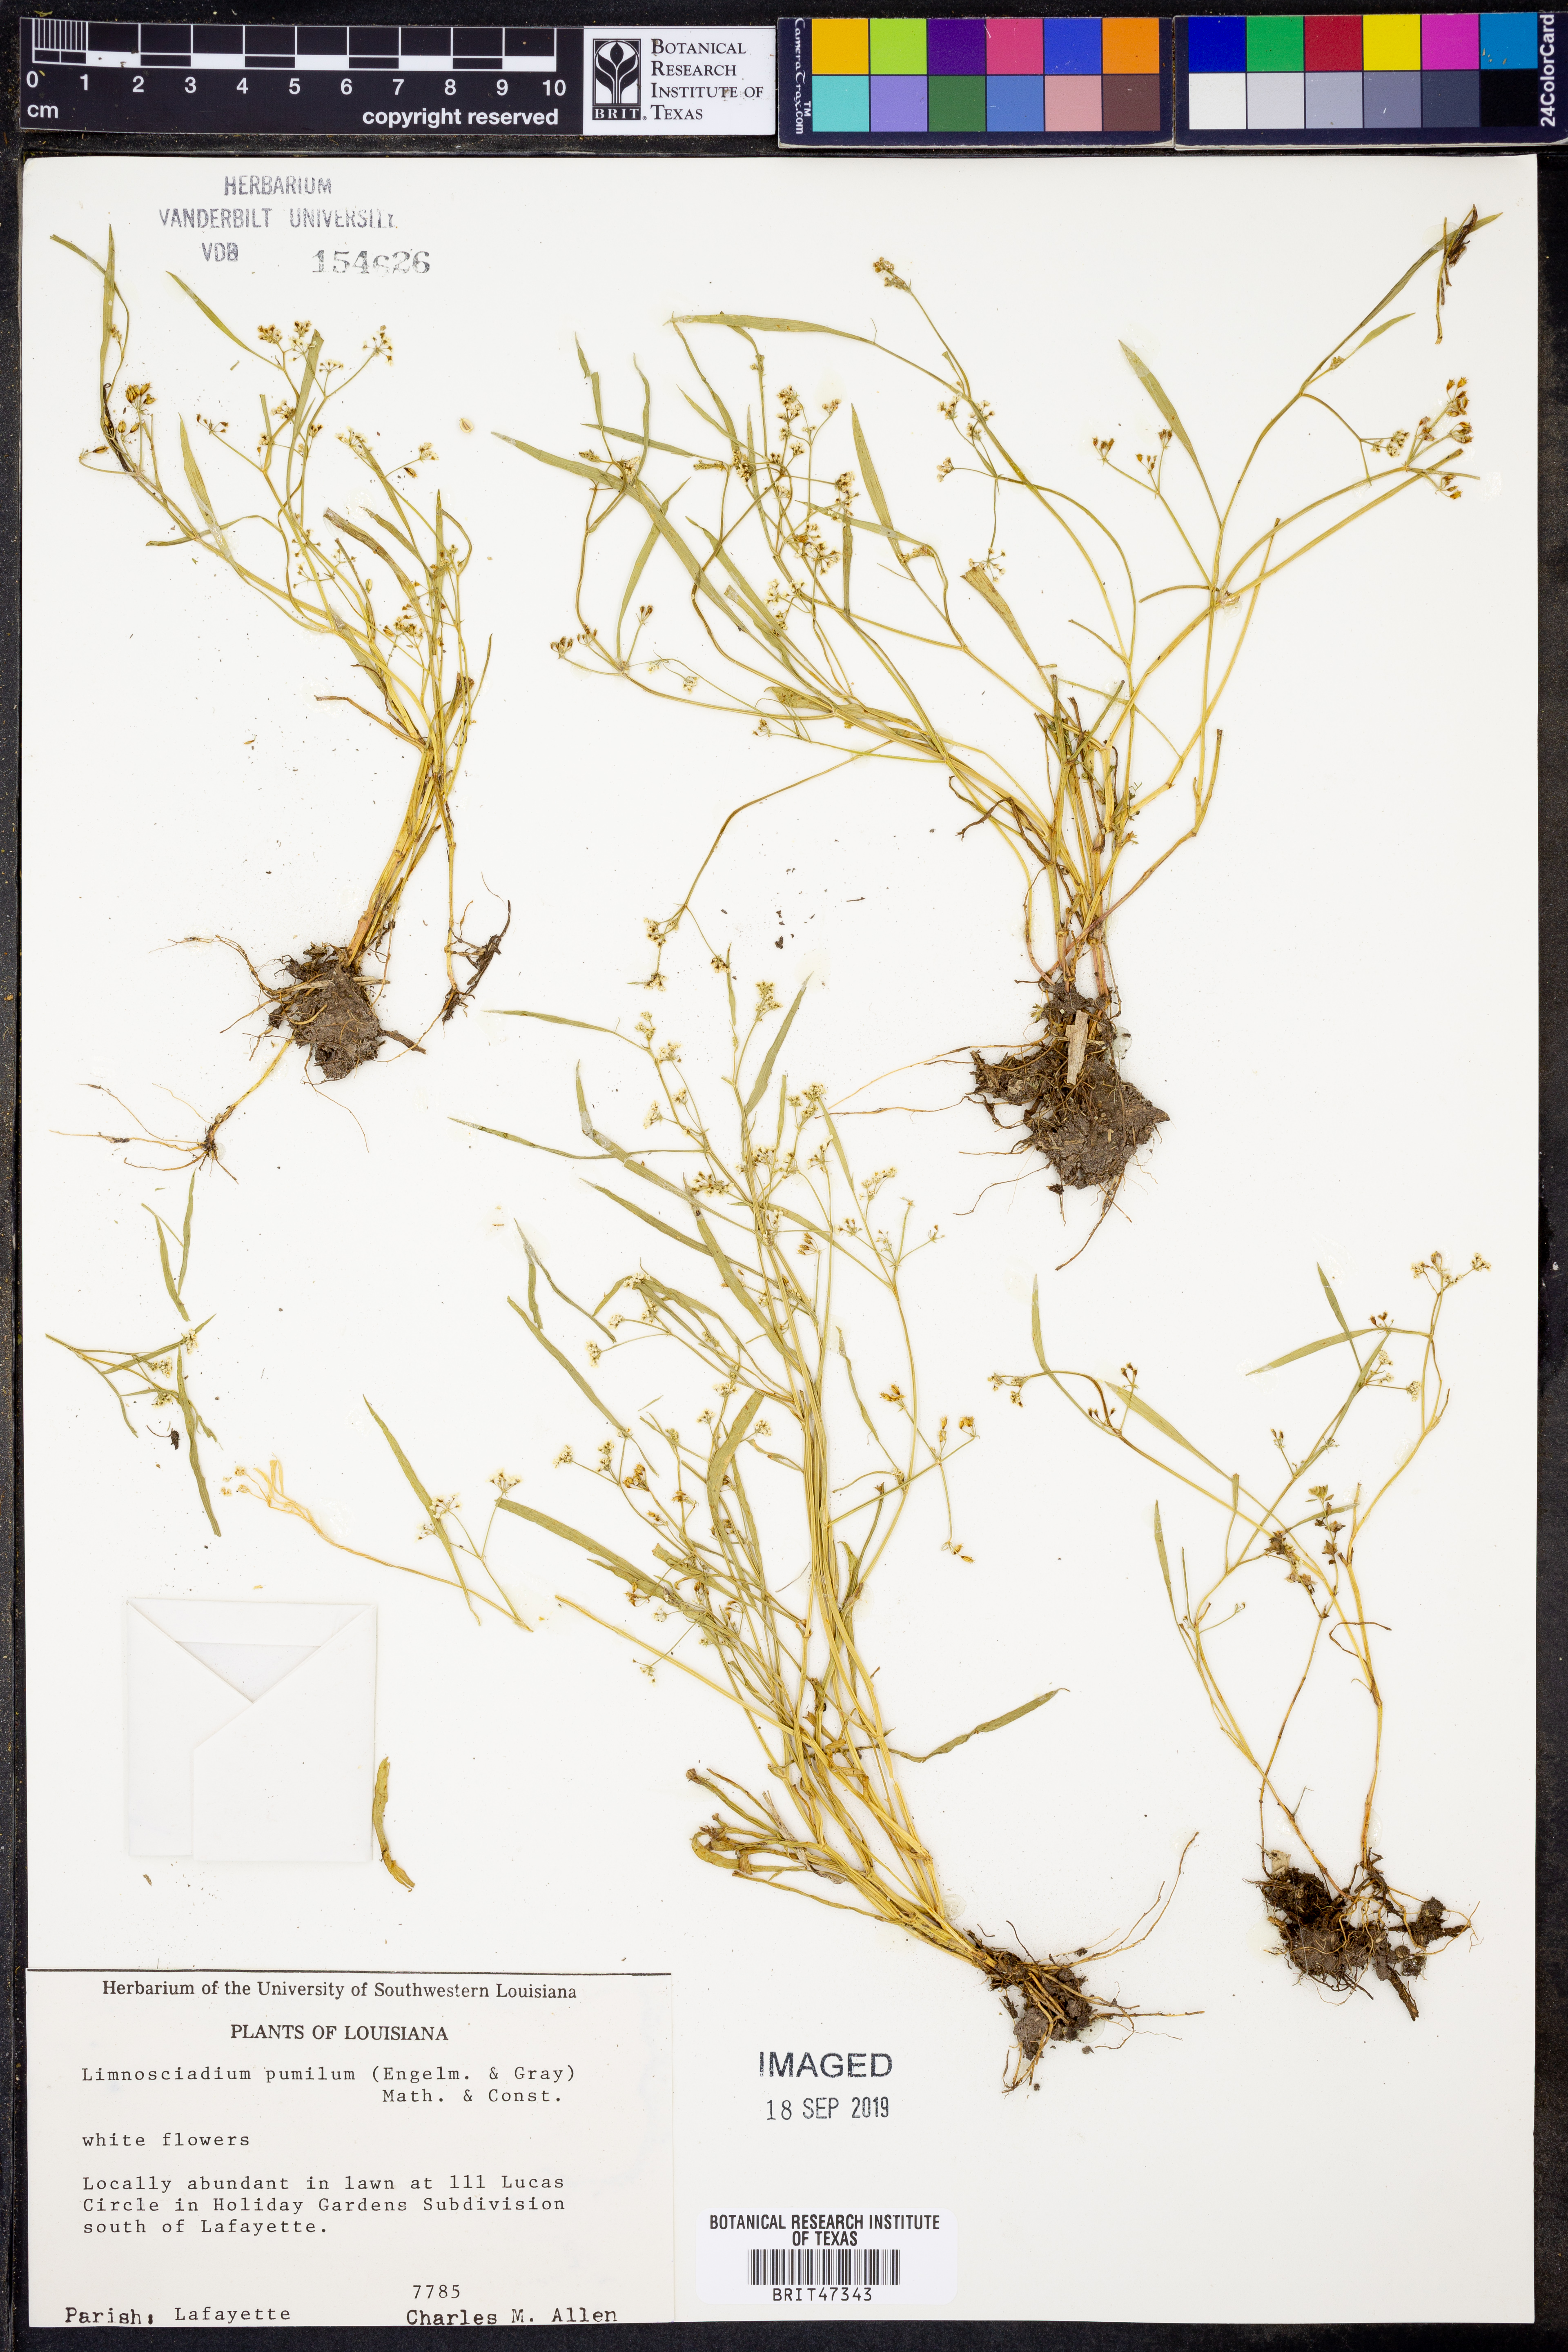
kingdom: Plantae
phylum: Tracheophyta
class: Magnoliopsida
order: Apiales
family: Apiaceae
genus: Limnosciadium
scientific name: Limnosciadium pinnatum
